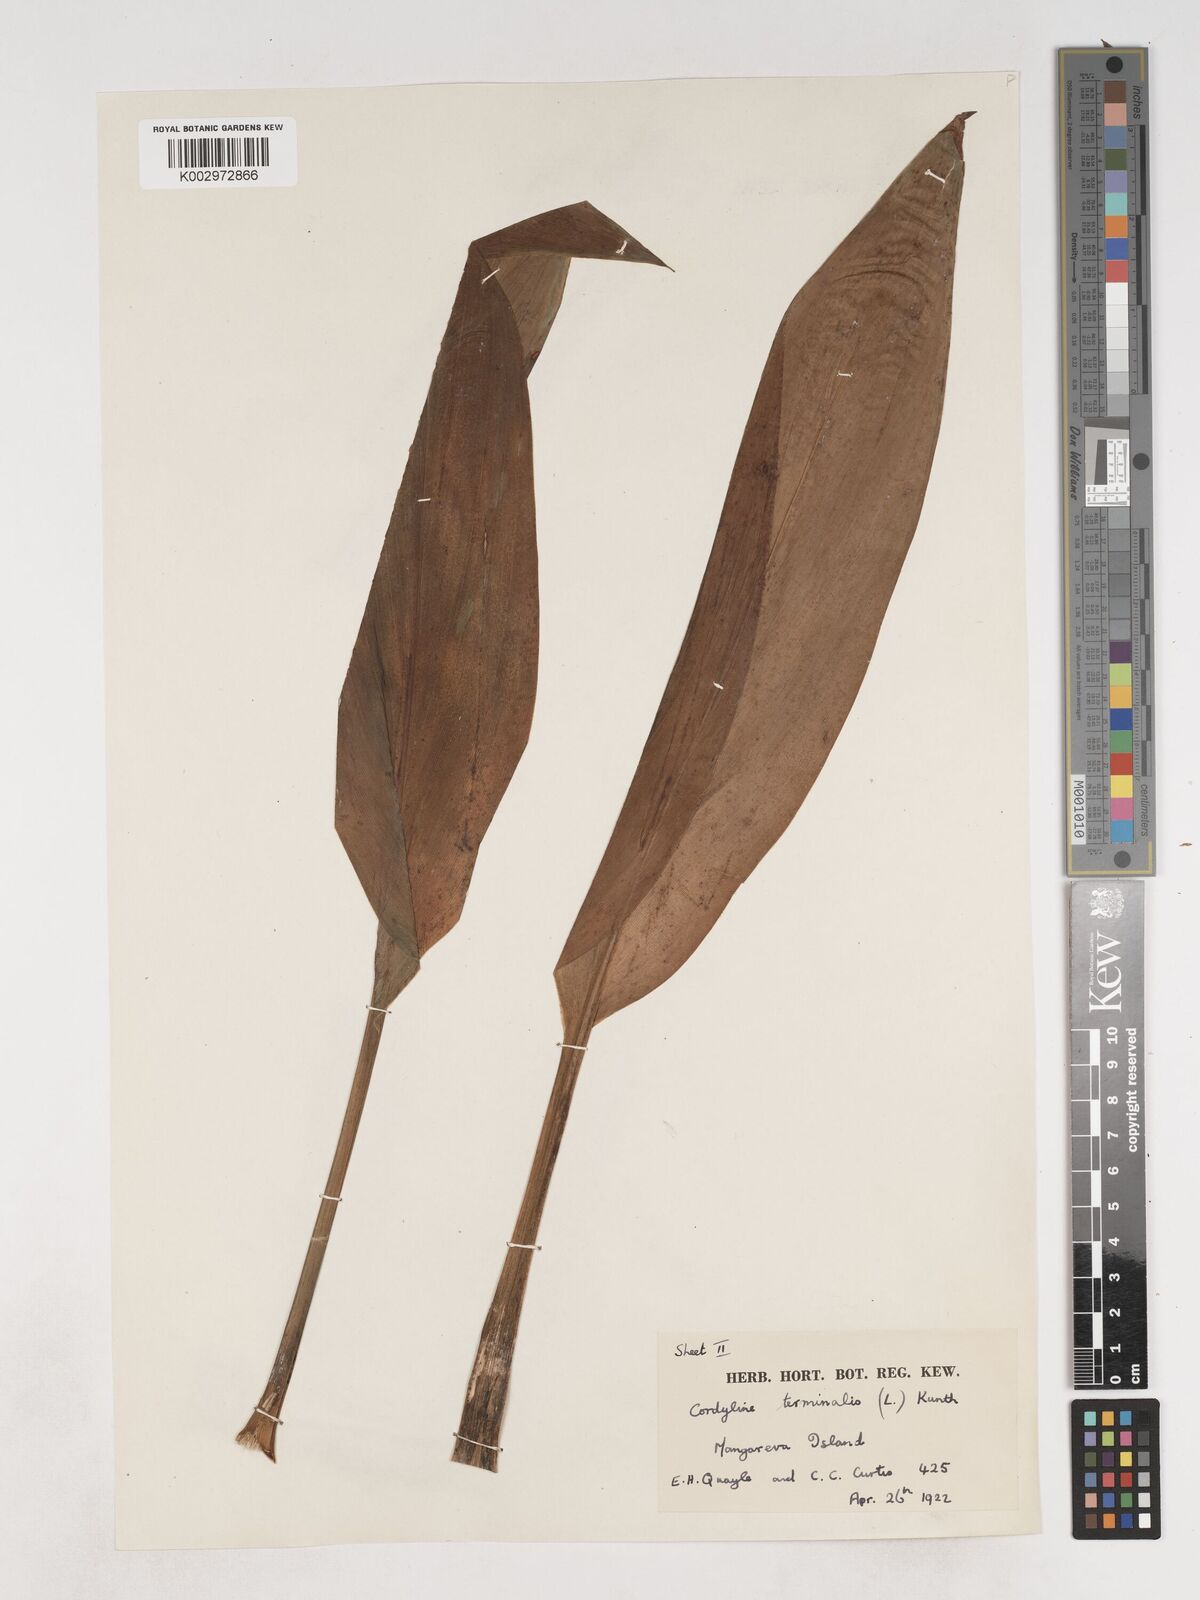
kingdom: Plantae
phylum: Tracheophyta
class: Liliopsida
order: Asparagales
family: Asparagaceae
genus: Cordyline
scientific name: Cordyline fruticosa
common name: Good-luck-plant
